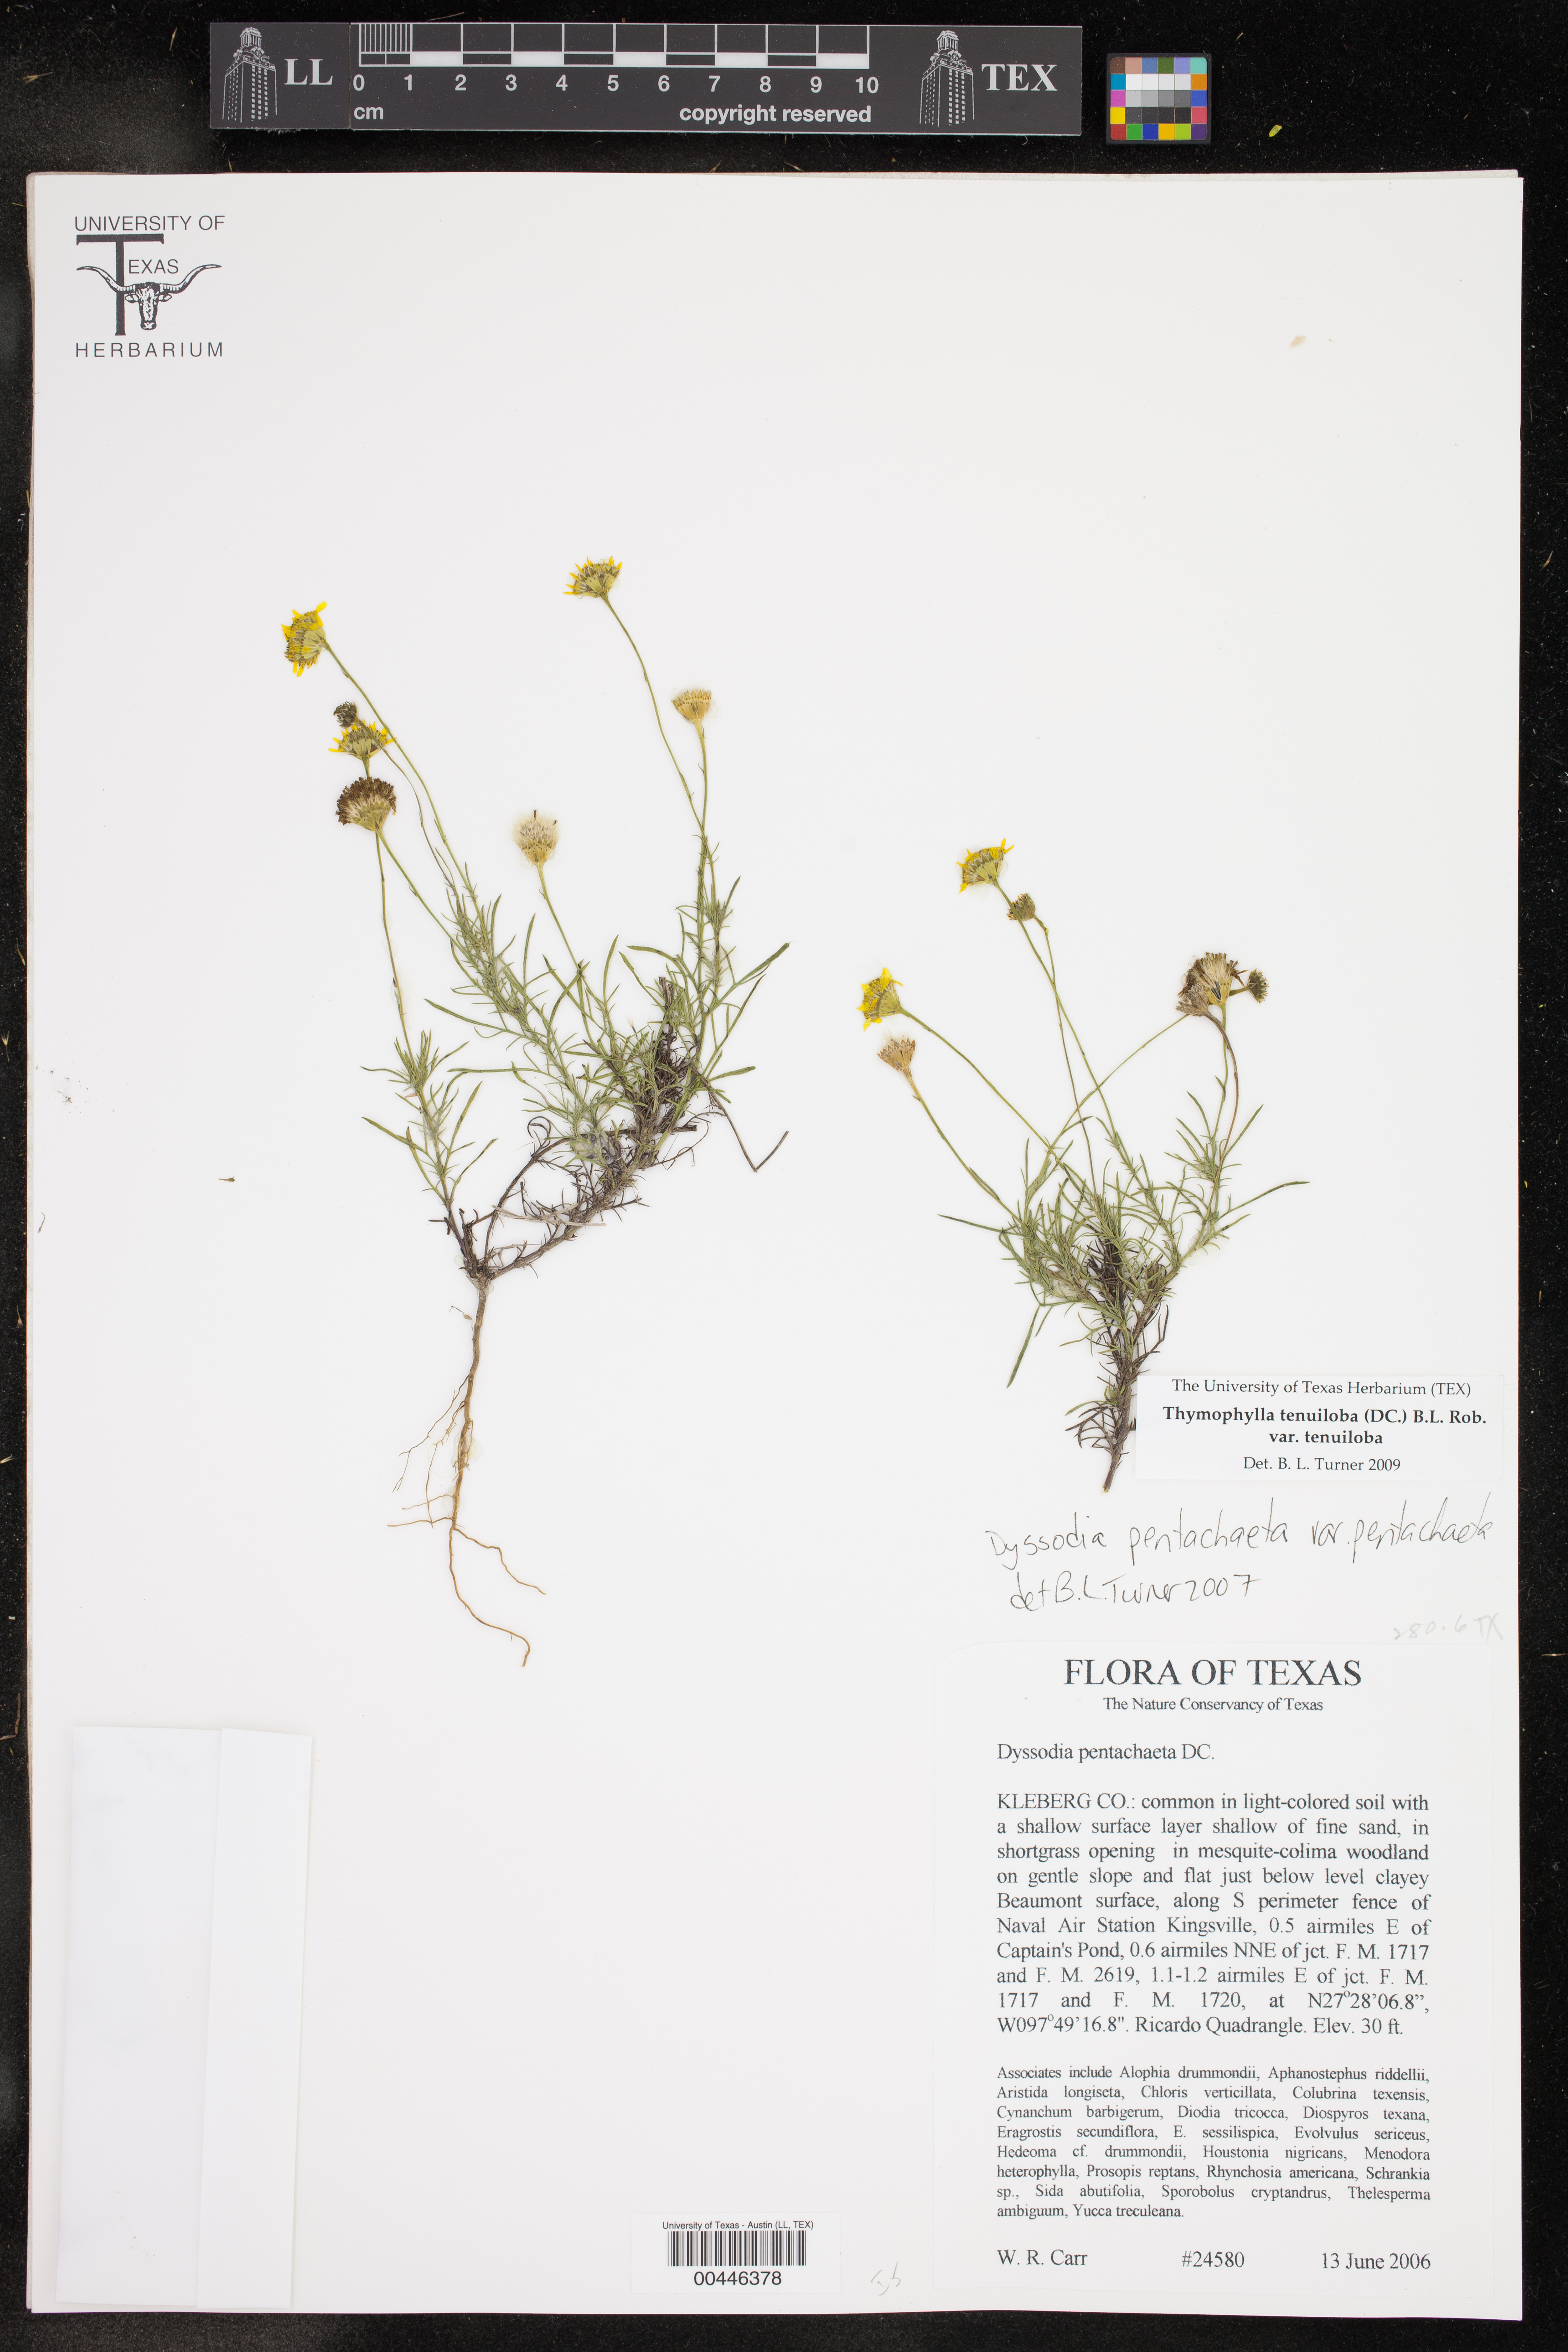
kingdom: Plantae
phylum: Tracheophyta
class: Magnoliopsida
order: Asterales
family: Asteraceae
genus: Thymophylla
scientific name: Thymophylla tenuiloba
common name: Dahlberg's daisy
